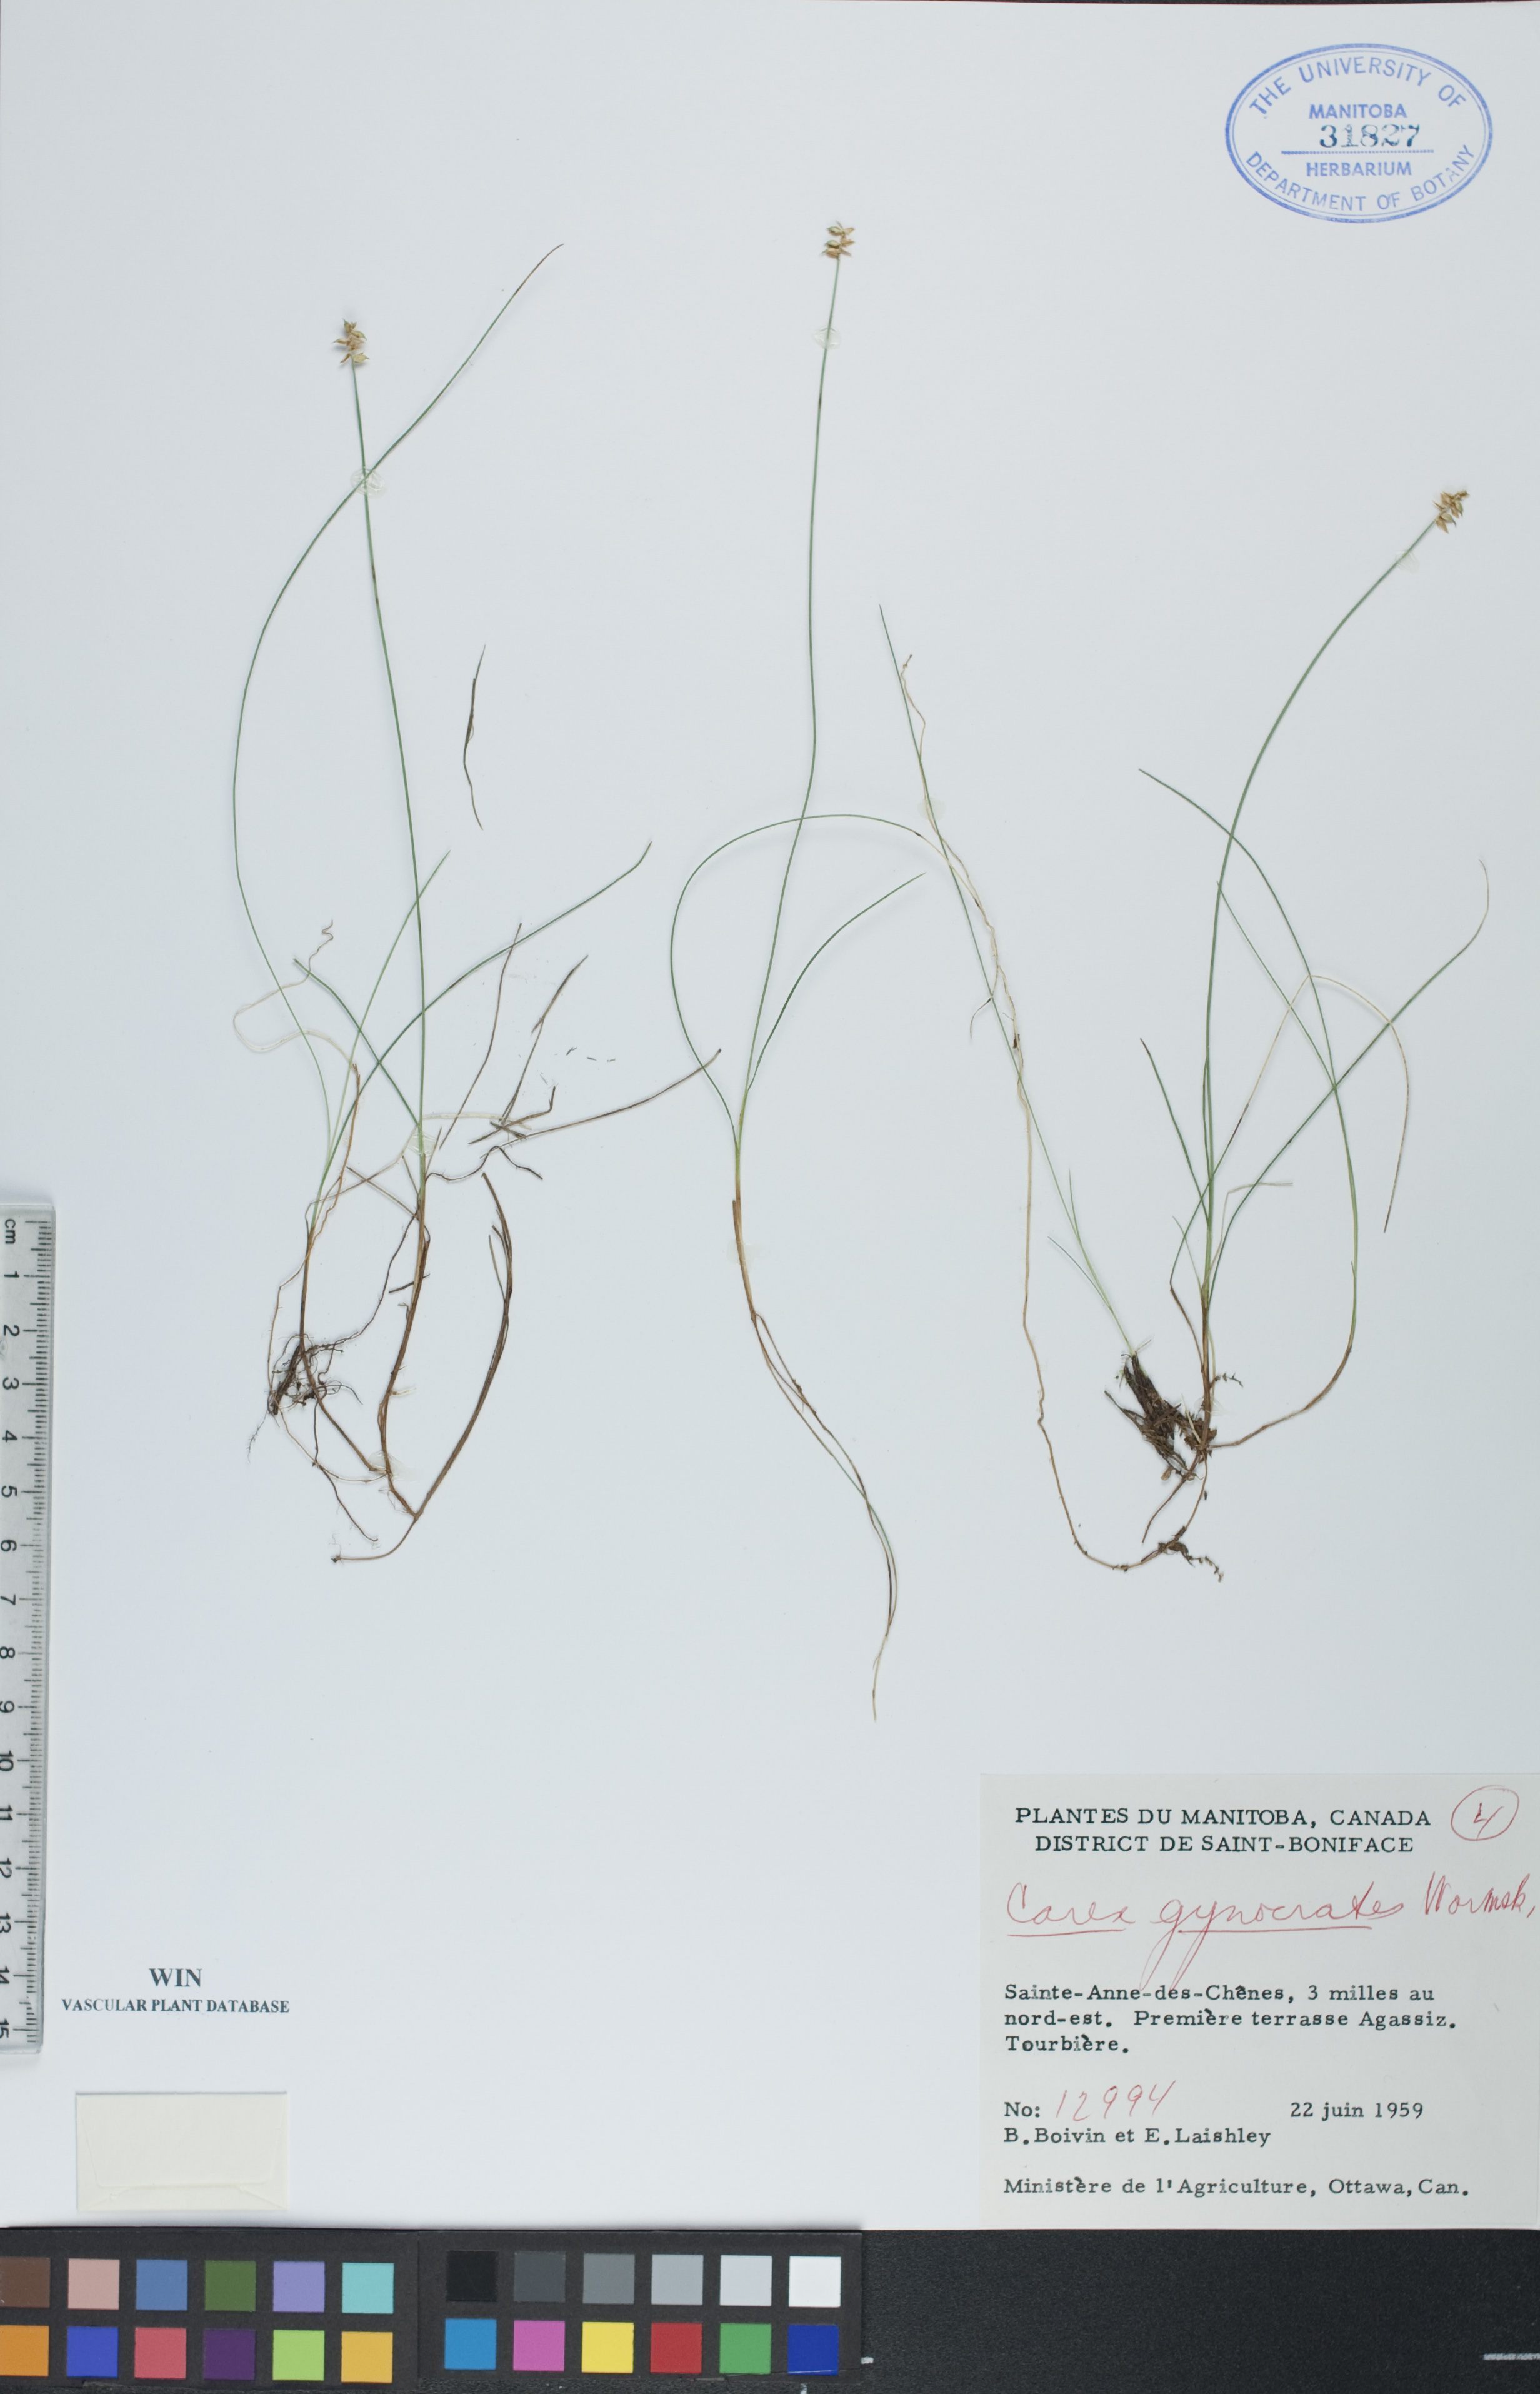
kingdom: Plantae
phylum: Tracheophyta
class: Liliopsida
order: Poales
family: Cyperaceae
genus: Carex
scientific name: Carex nardina
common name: Nard sedge
